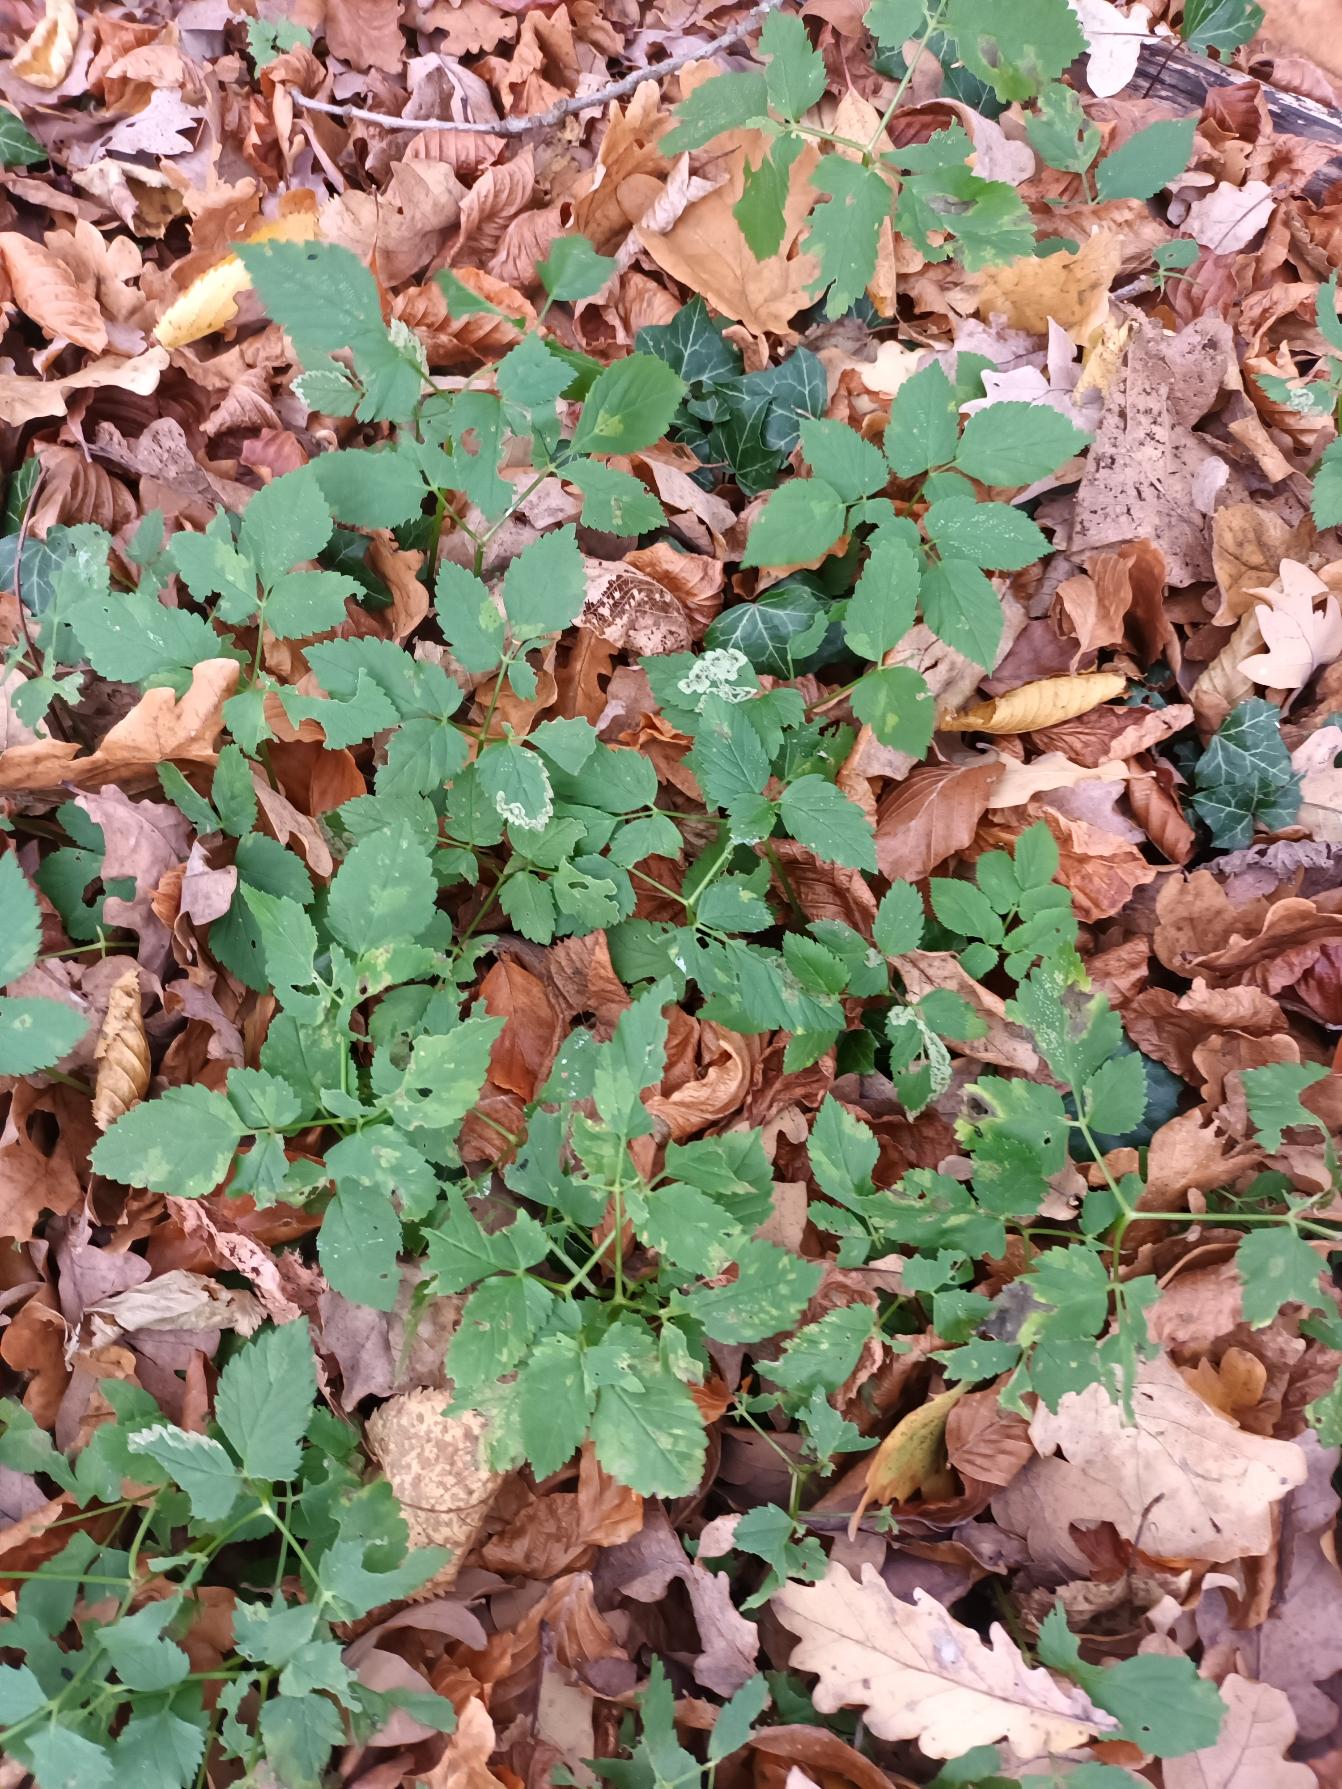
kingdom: Plantae
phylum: Tracheophyta
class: Magnoliopsida
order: Apiales
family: Apiaceae
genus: Aegopodium
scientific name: Aegopodium podagraria
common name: Skvalderkål
